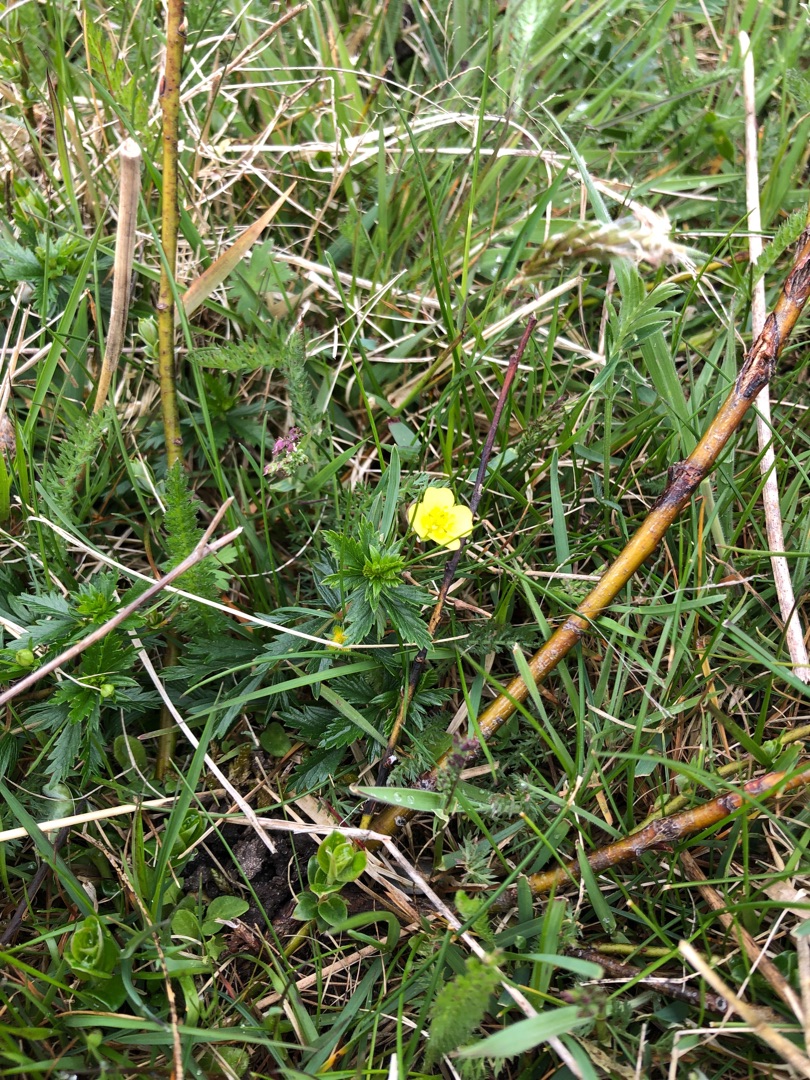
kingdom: Plantae
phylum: Tracheophyta
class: Magnoliopsida
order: Rosales
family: Rosaceae
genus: Potentilla
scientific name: Potentilla erecta
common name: Tormentil
